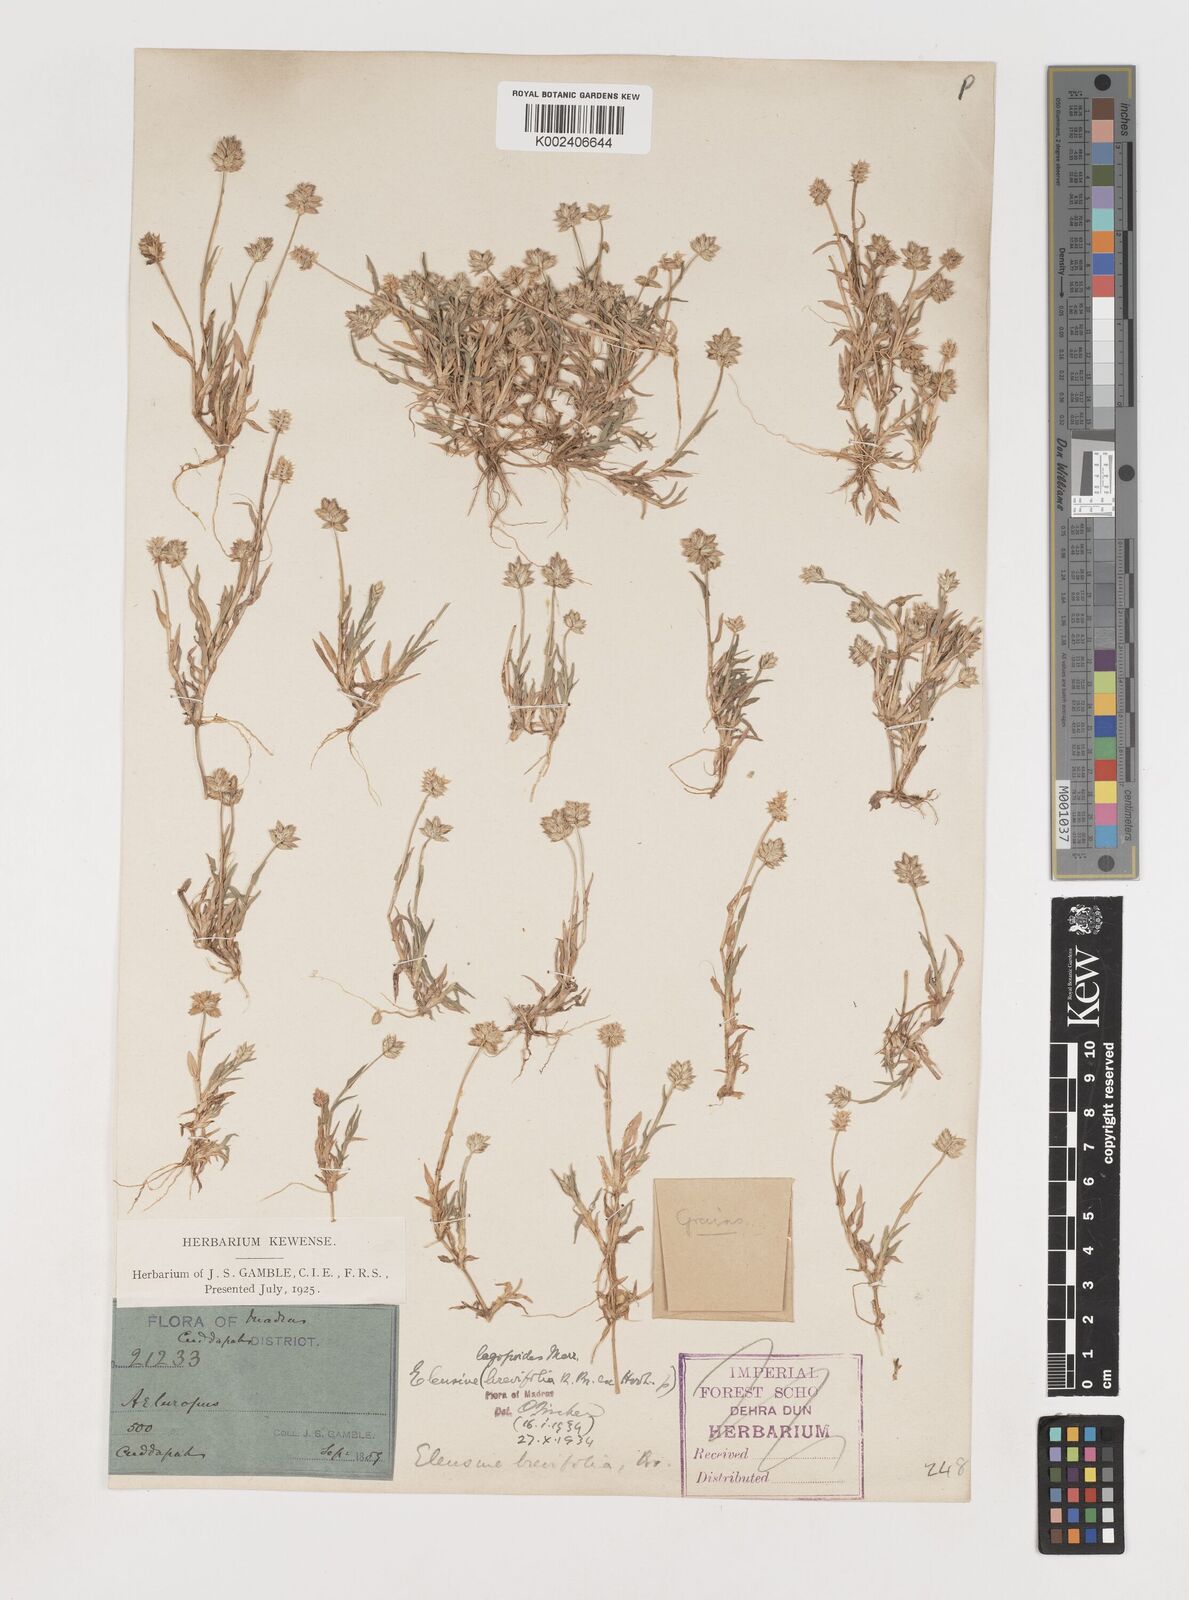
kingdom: Plantae
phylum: Tracheophyta
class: Liliopsida
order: Poales
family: Poaceae
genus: Coelachyrum
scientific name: Coelachyrum lagopoides
